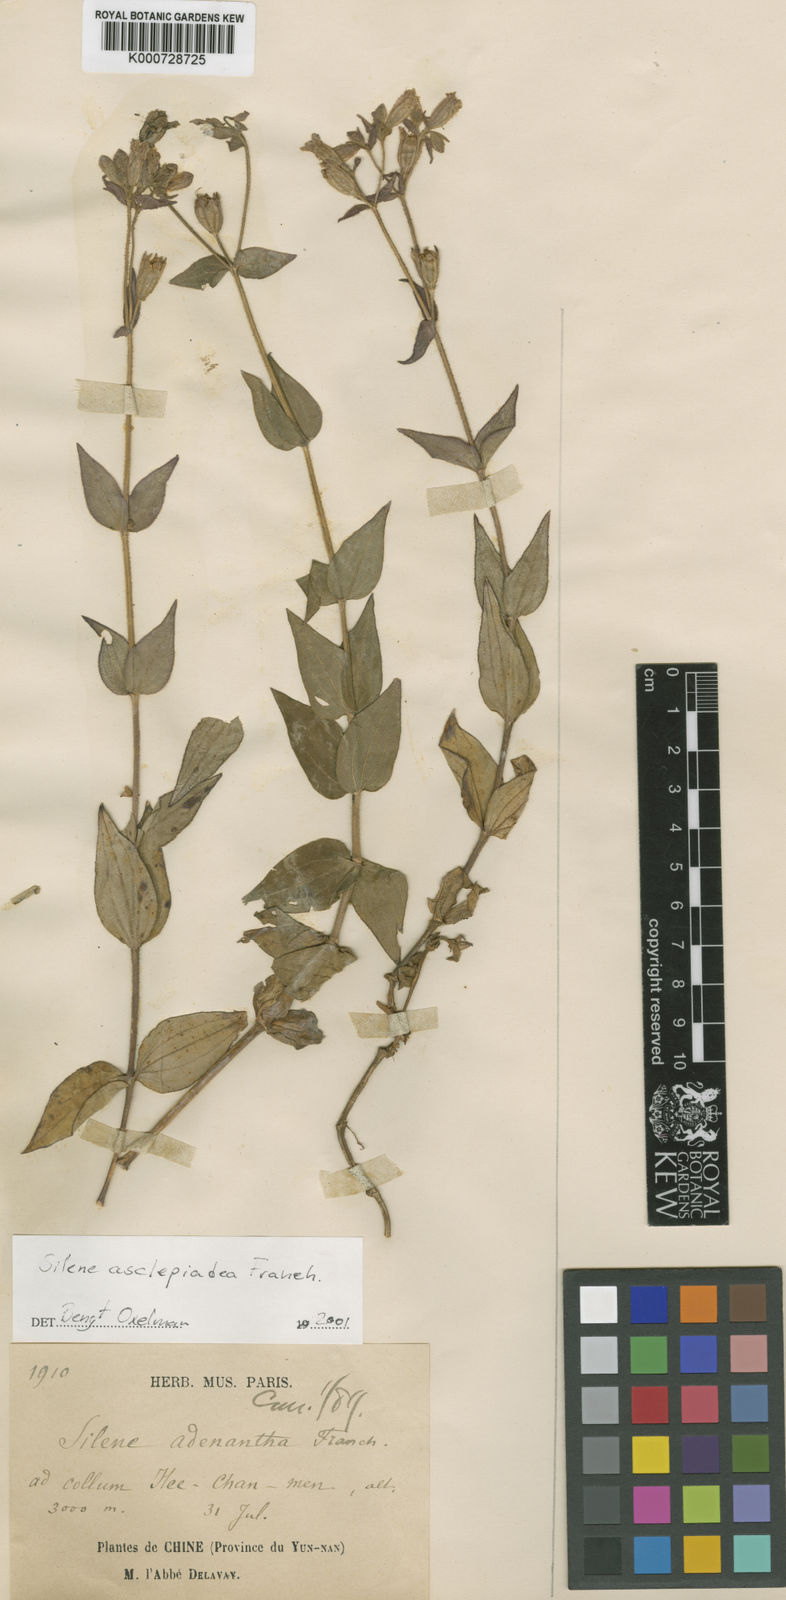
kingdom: Plantae
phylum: Tracheophyta
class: Magnoliopsida
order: Caryophyllales
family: Caryophyllaceae
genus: Silene
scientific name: Silene asclepiadea
